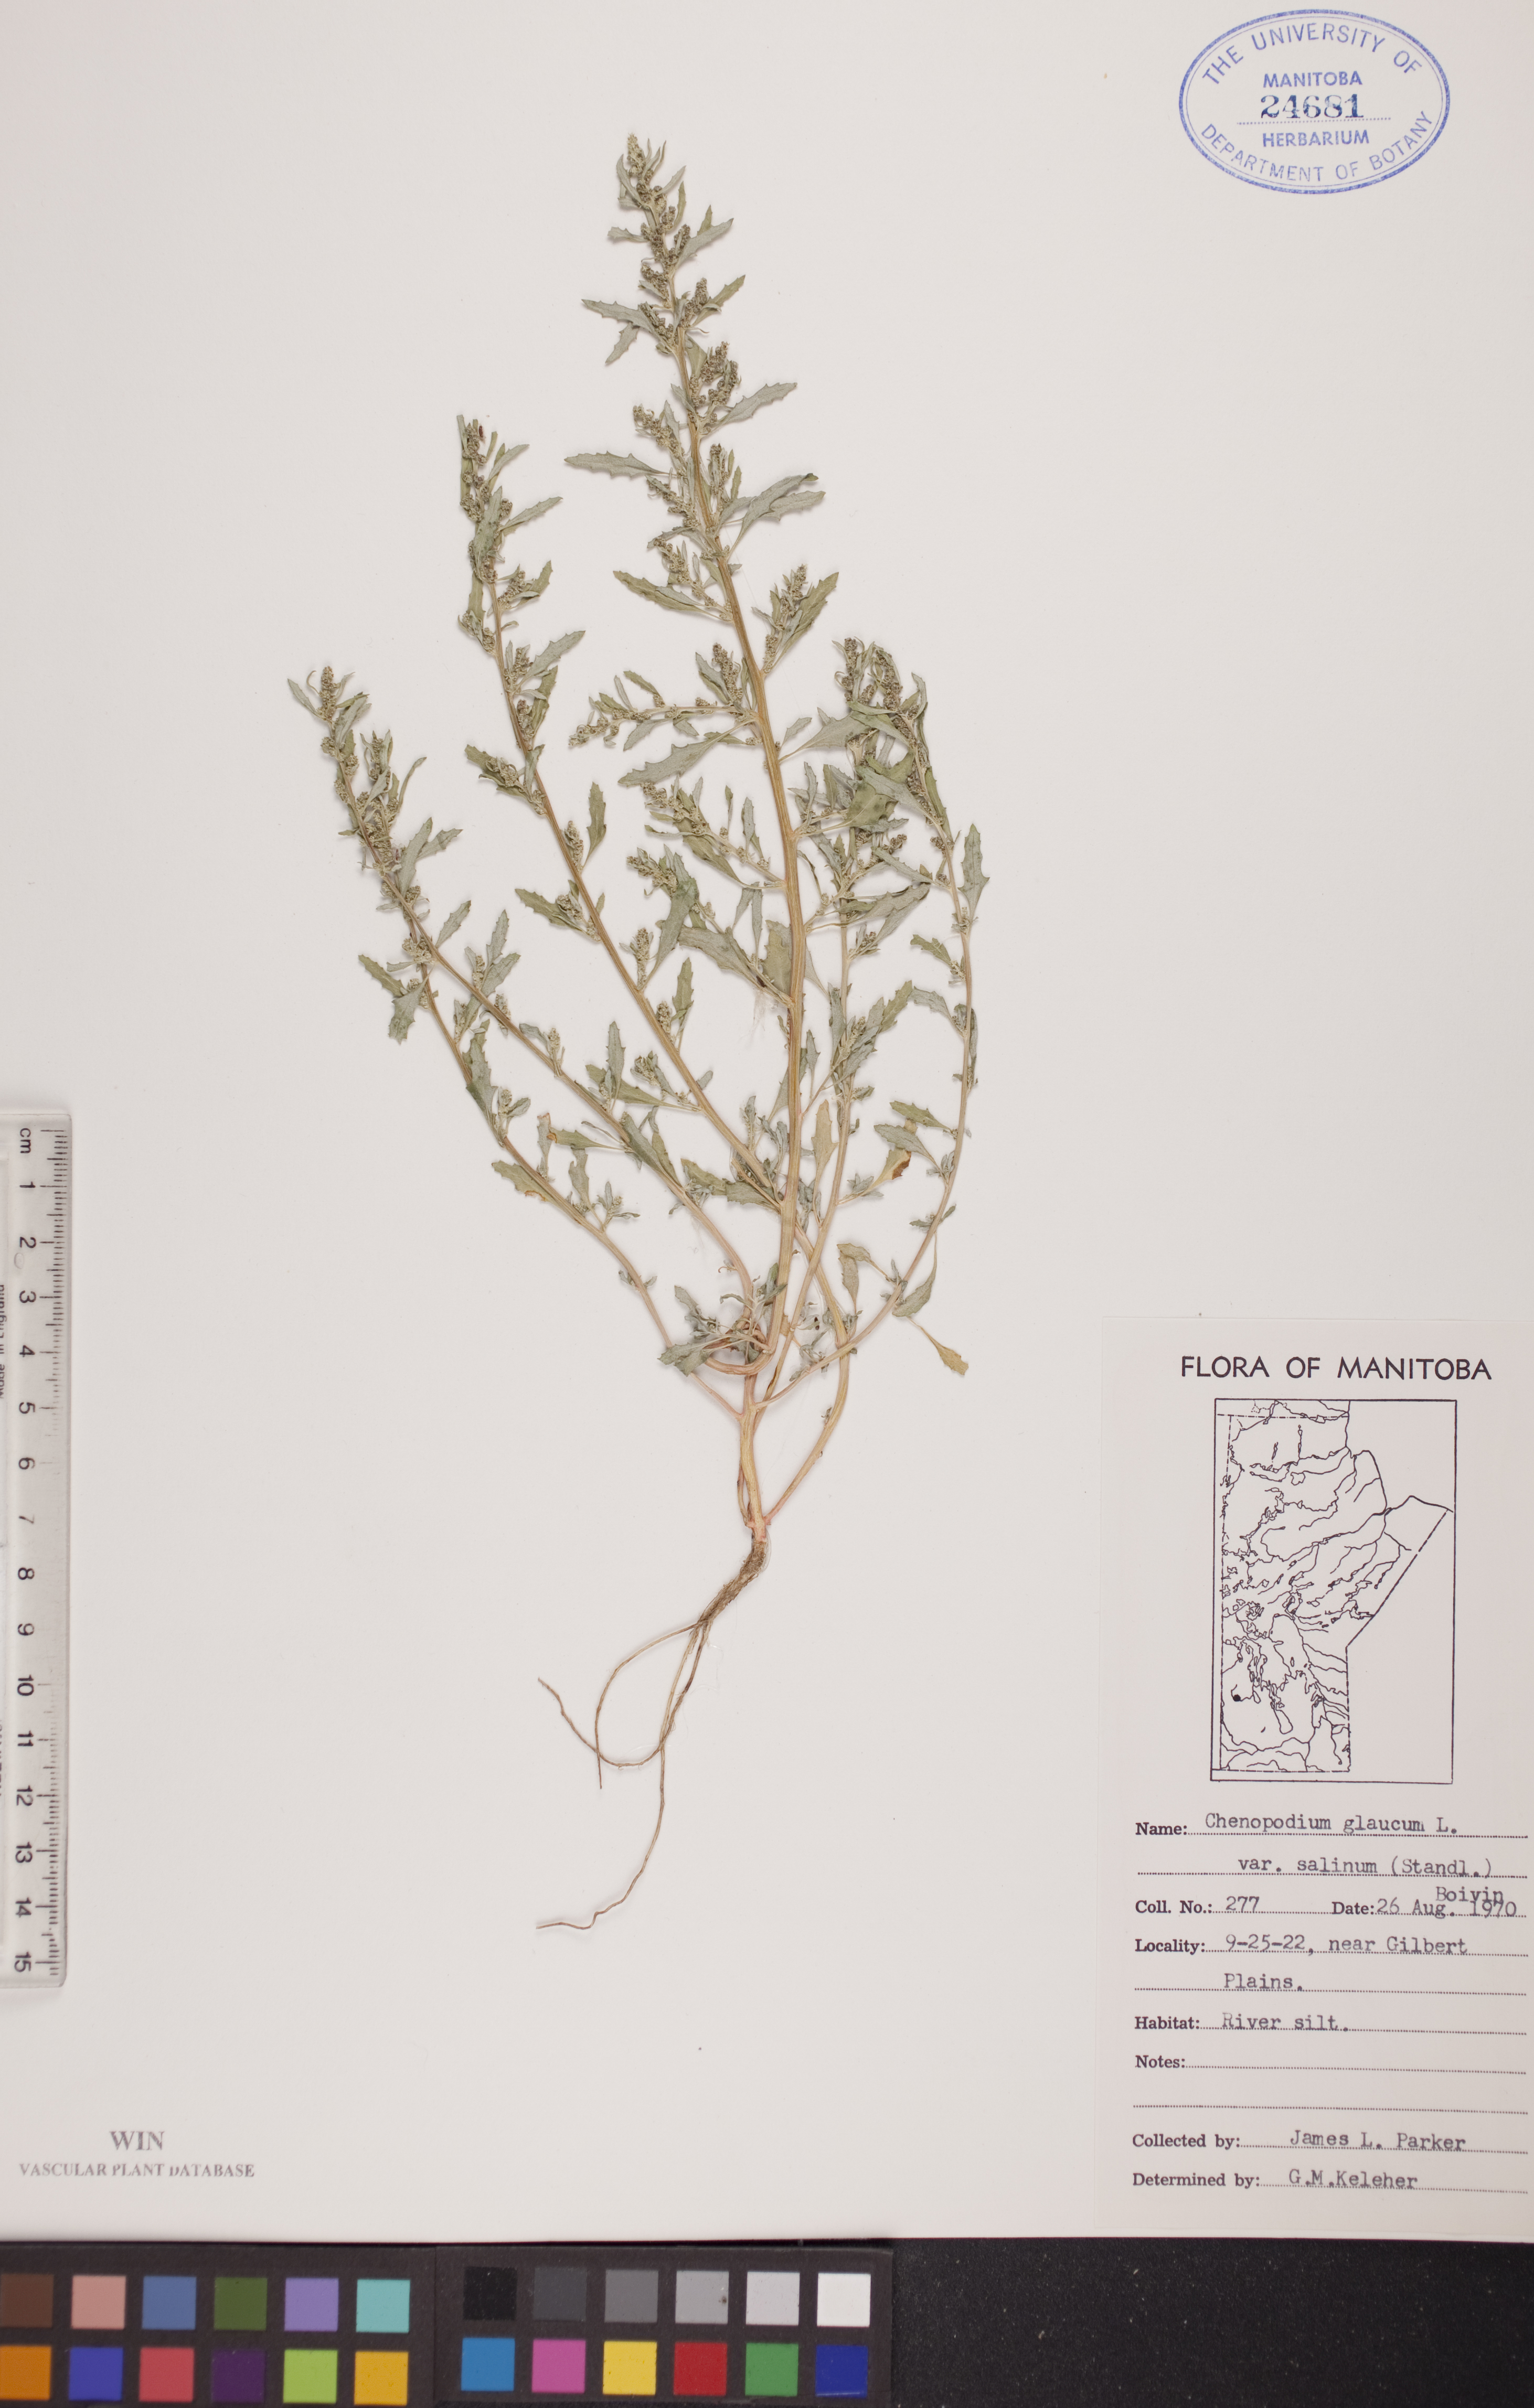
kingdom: Plantae
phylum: Tracheophyta
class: Magnoliopsida
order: Caryophyllales
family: Amaranthaceae
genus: Oxybasis
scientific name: Oxybasis salina
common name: Rocky mountain goosefoot
